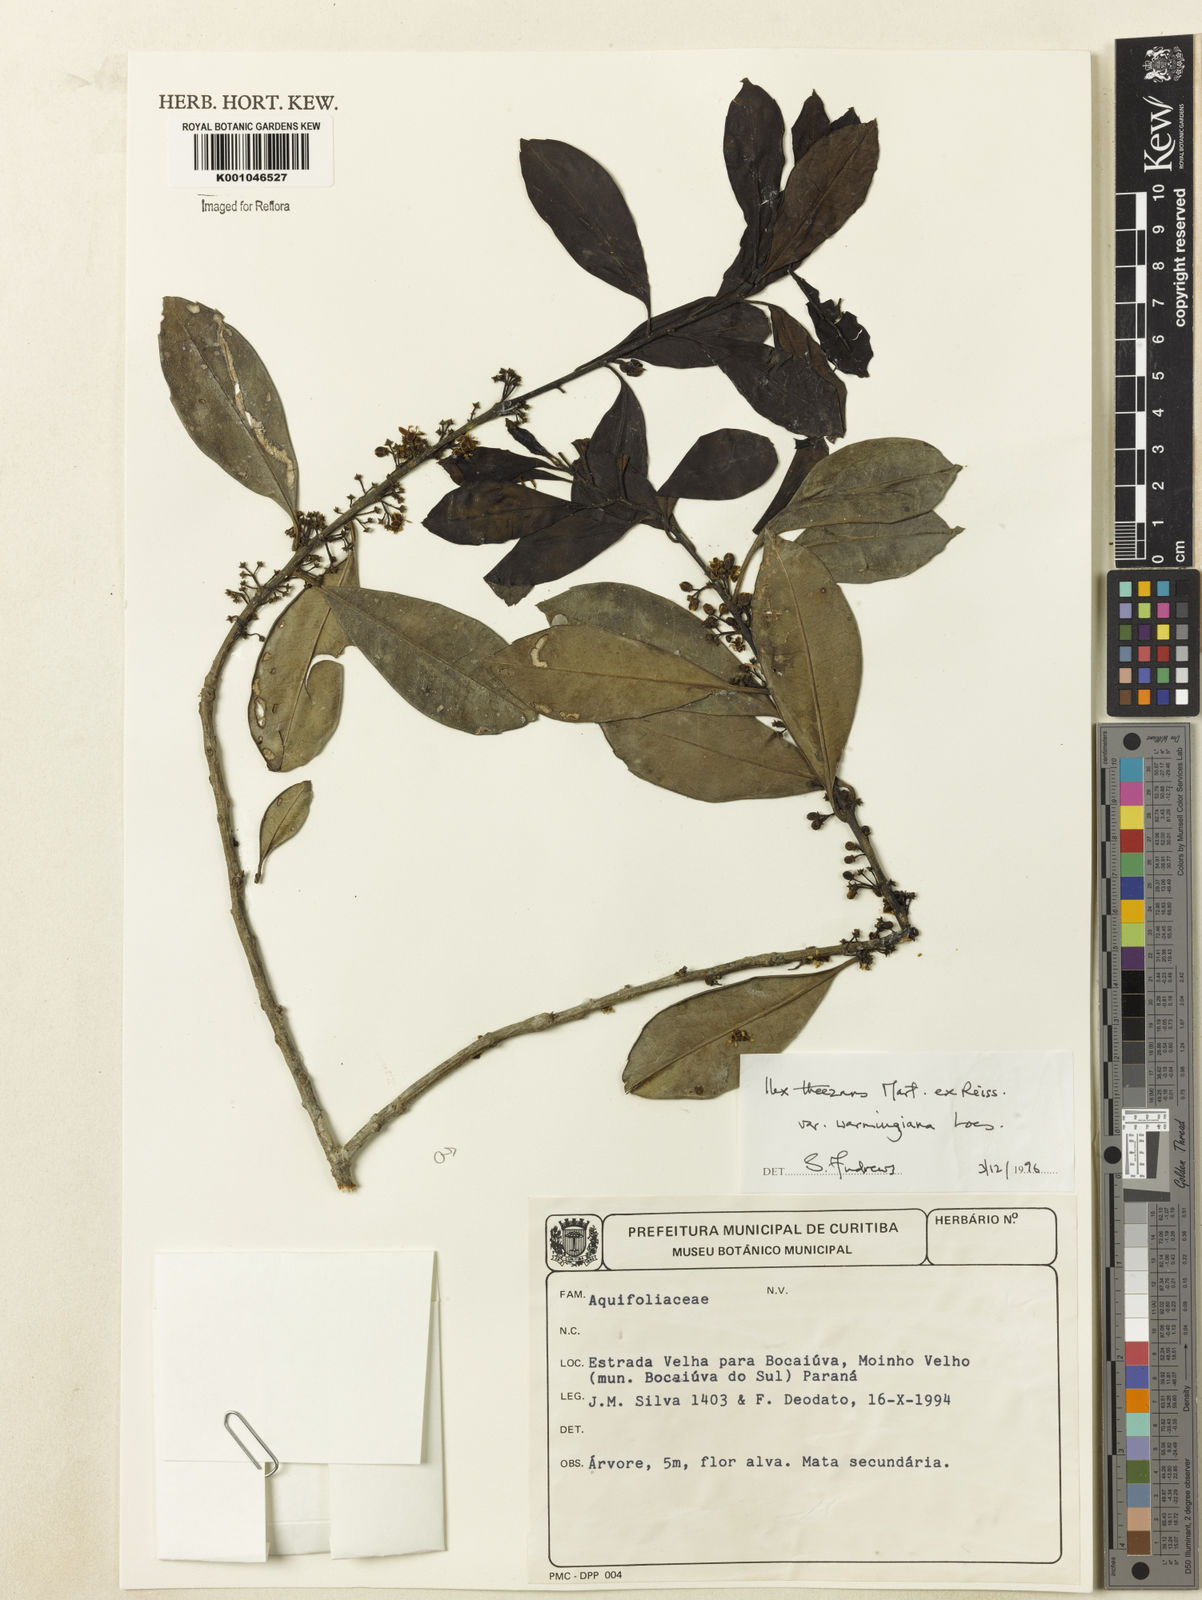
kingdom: Plantae
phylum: Tracheophyta
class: Magnoliopsida
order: Aquifoliales
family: Aquifoliaceae
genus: Ilex
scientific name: Ilex theezans
